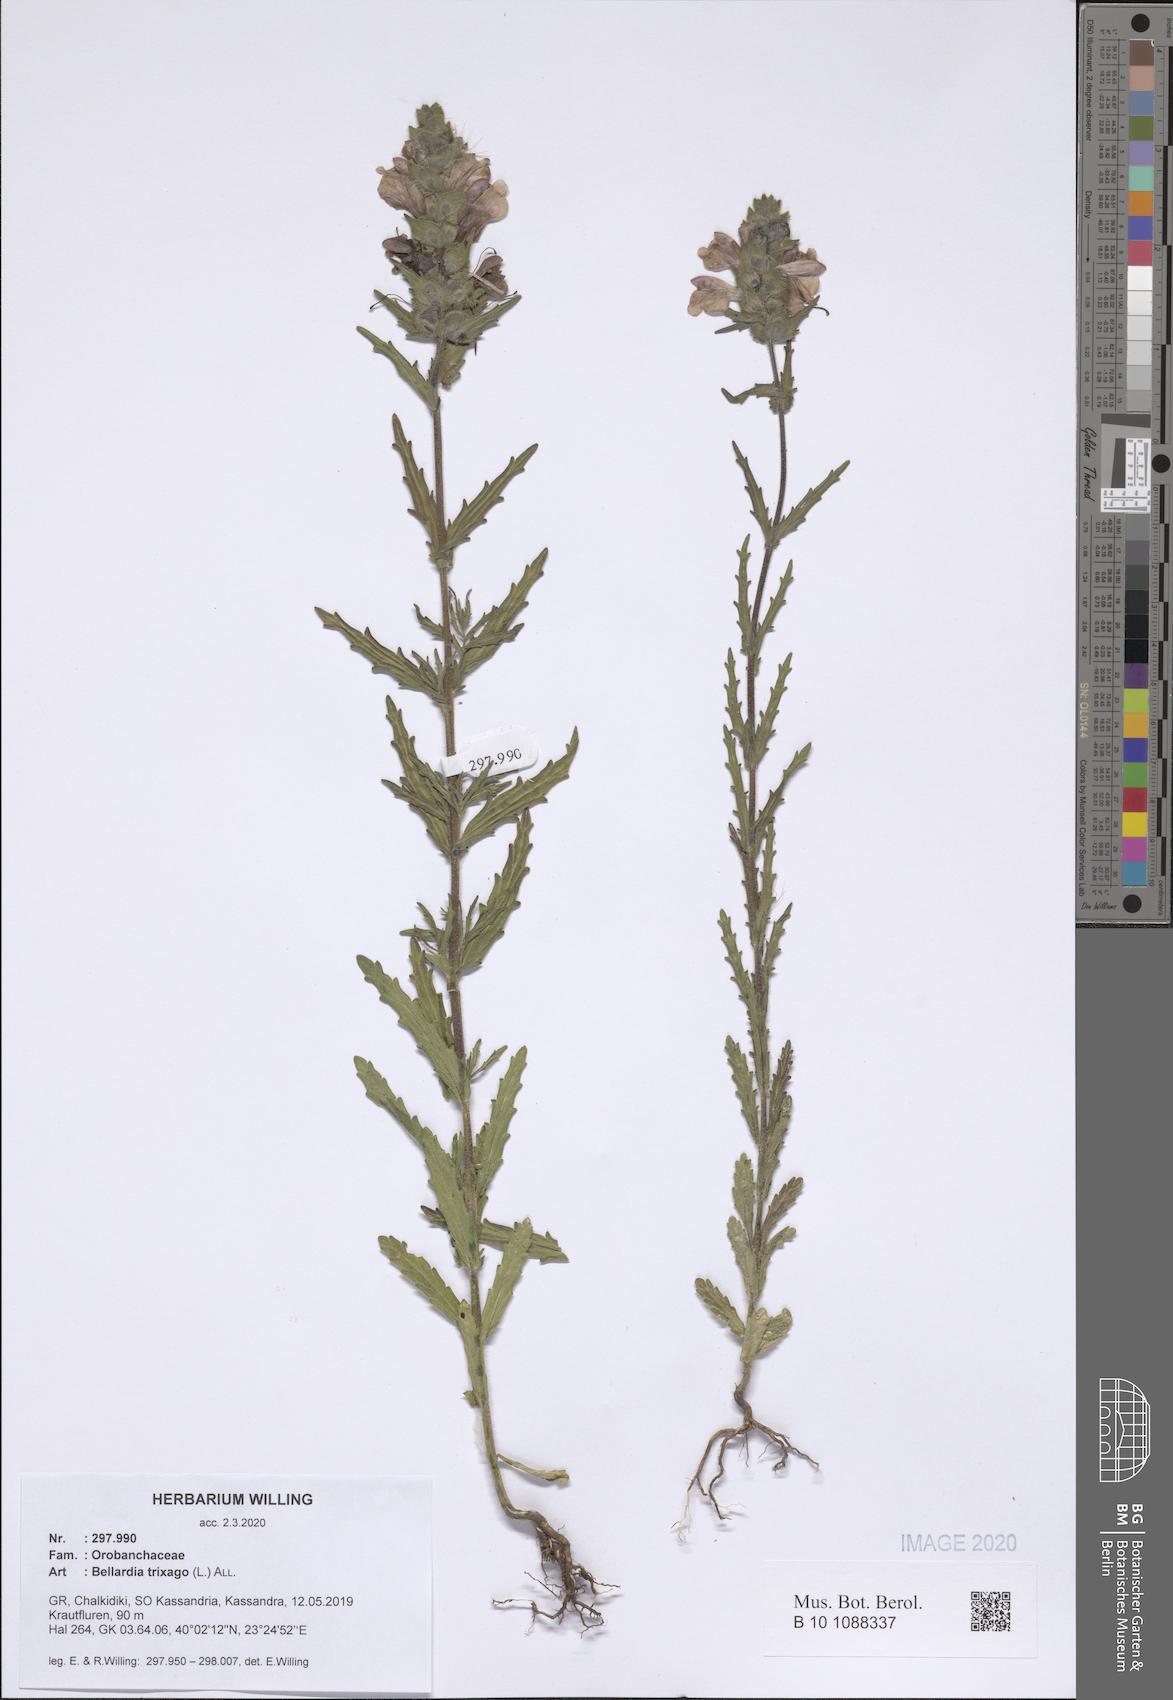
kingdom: Plantae
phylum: Tracheophyta
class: Magnoliopsida
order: Lamiales
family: Orobanchaceae
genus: Bellardia
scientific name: Bellardia trixago
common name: Mediterranean lineseed
